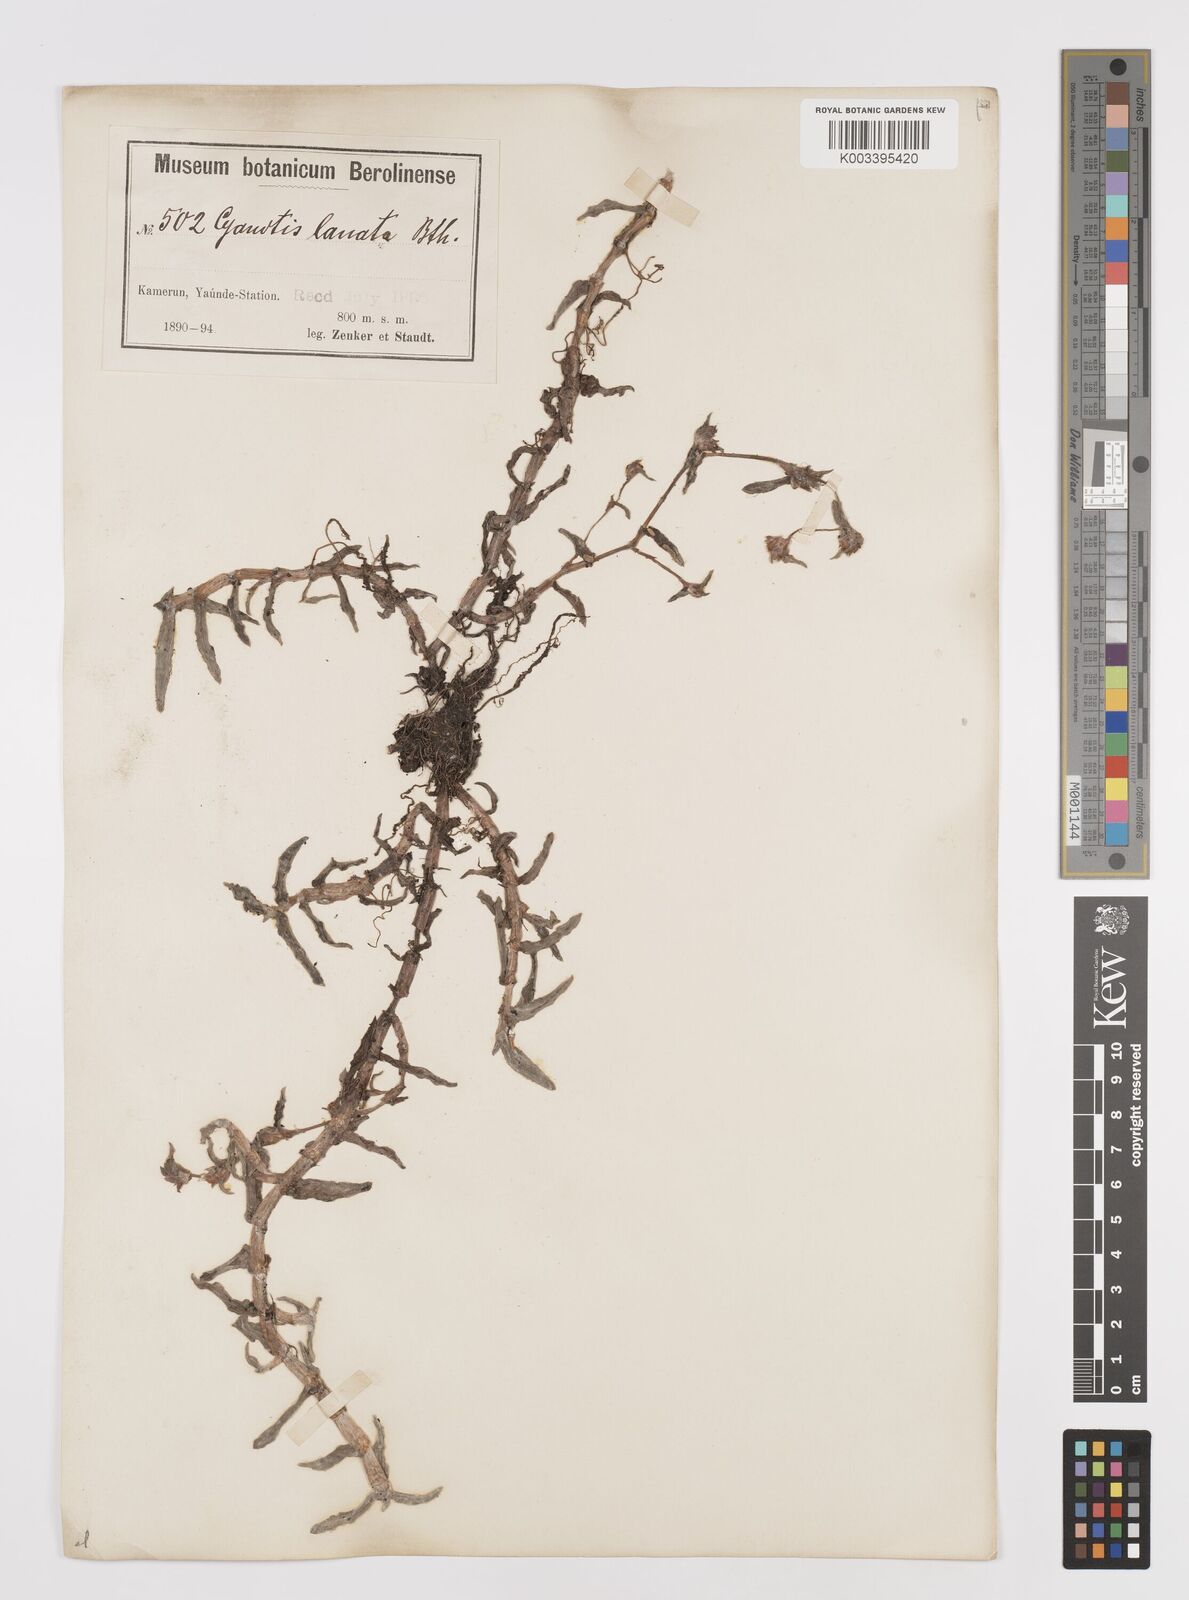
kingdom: Plantae
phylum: Tracheophyta
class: Liliopsida
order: Commelinales
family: Commelinaceae
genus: Cyanotis
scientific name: Cyanotis lanata
